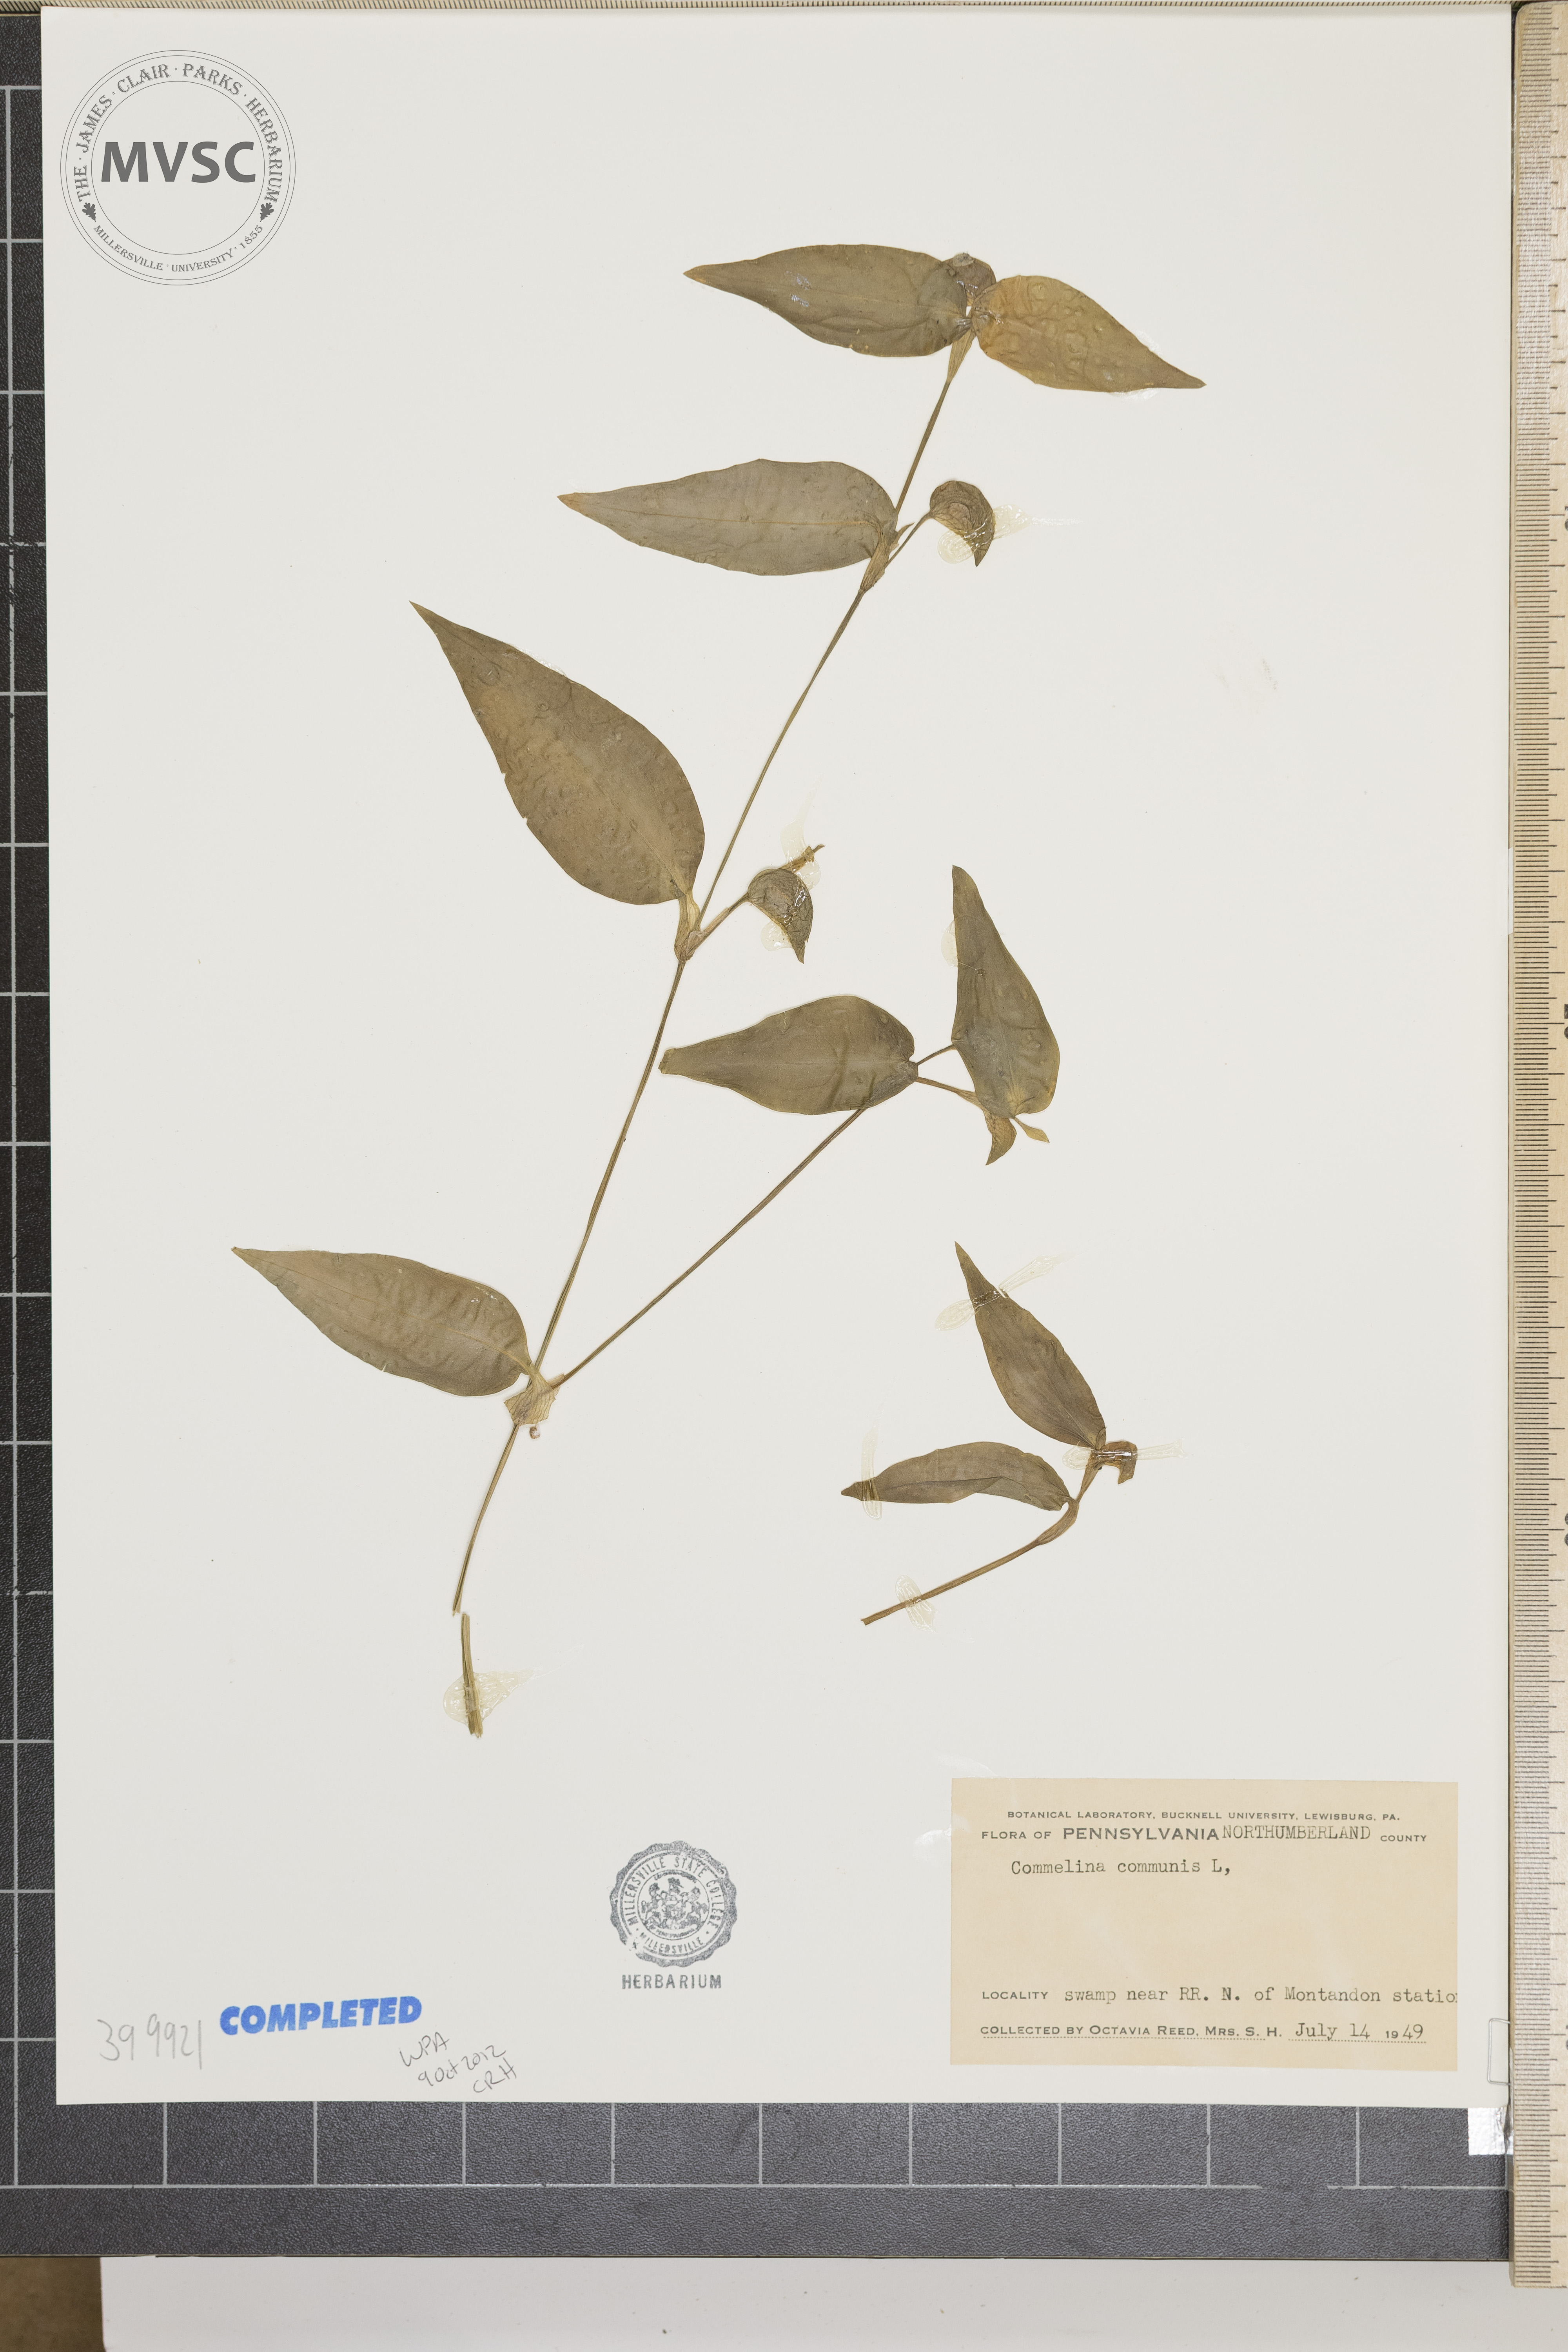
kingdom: Plantae
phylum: Tracheophyta
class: Liliopsida
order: Commelinales
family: Commelinaceae
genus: Commelina
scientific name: Commelina communis
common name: Asiatic dayflower
